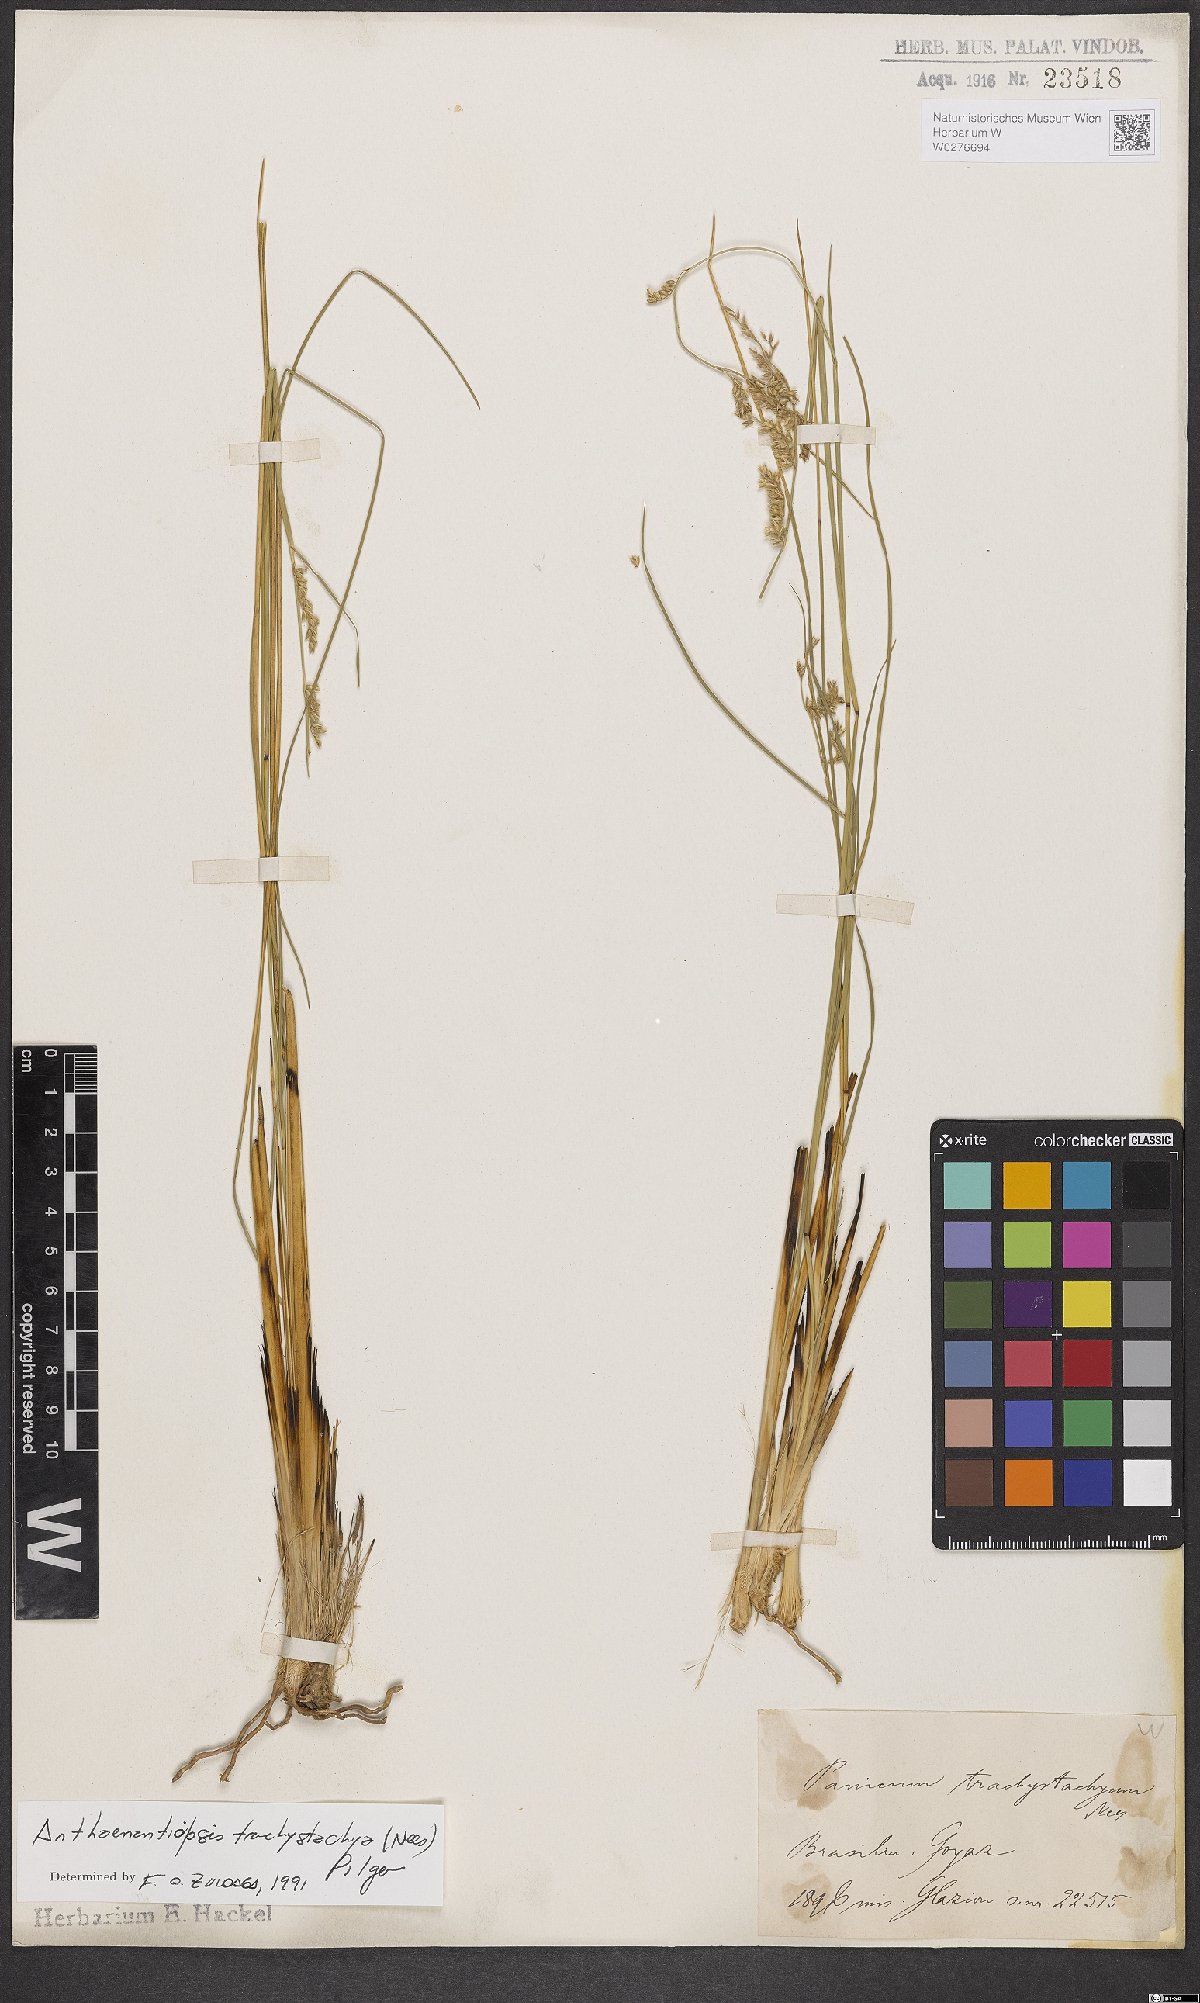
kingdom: Plantae
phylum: Tracheophyta
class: Liliopsida
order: Poales
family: Poaceae
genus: Anthaenantiopsis
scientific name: Anthaenantiopsis trachystachya
